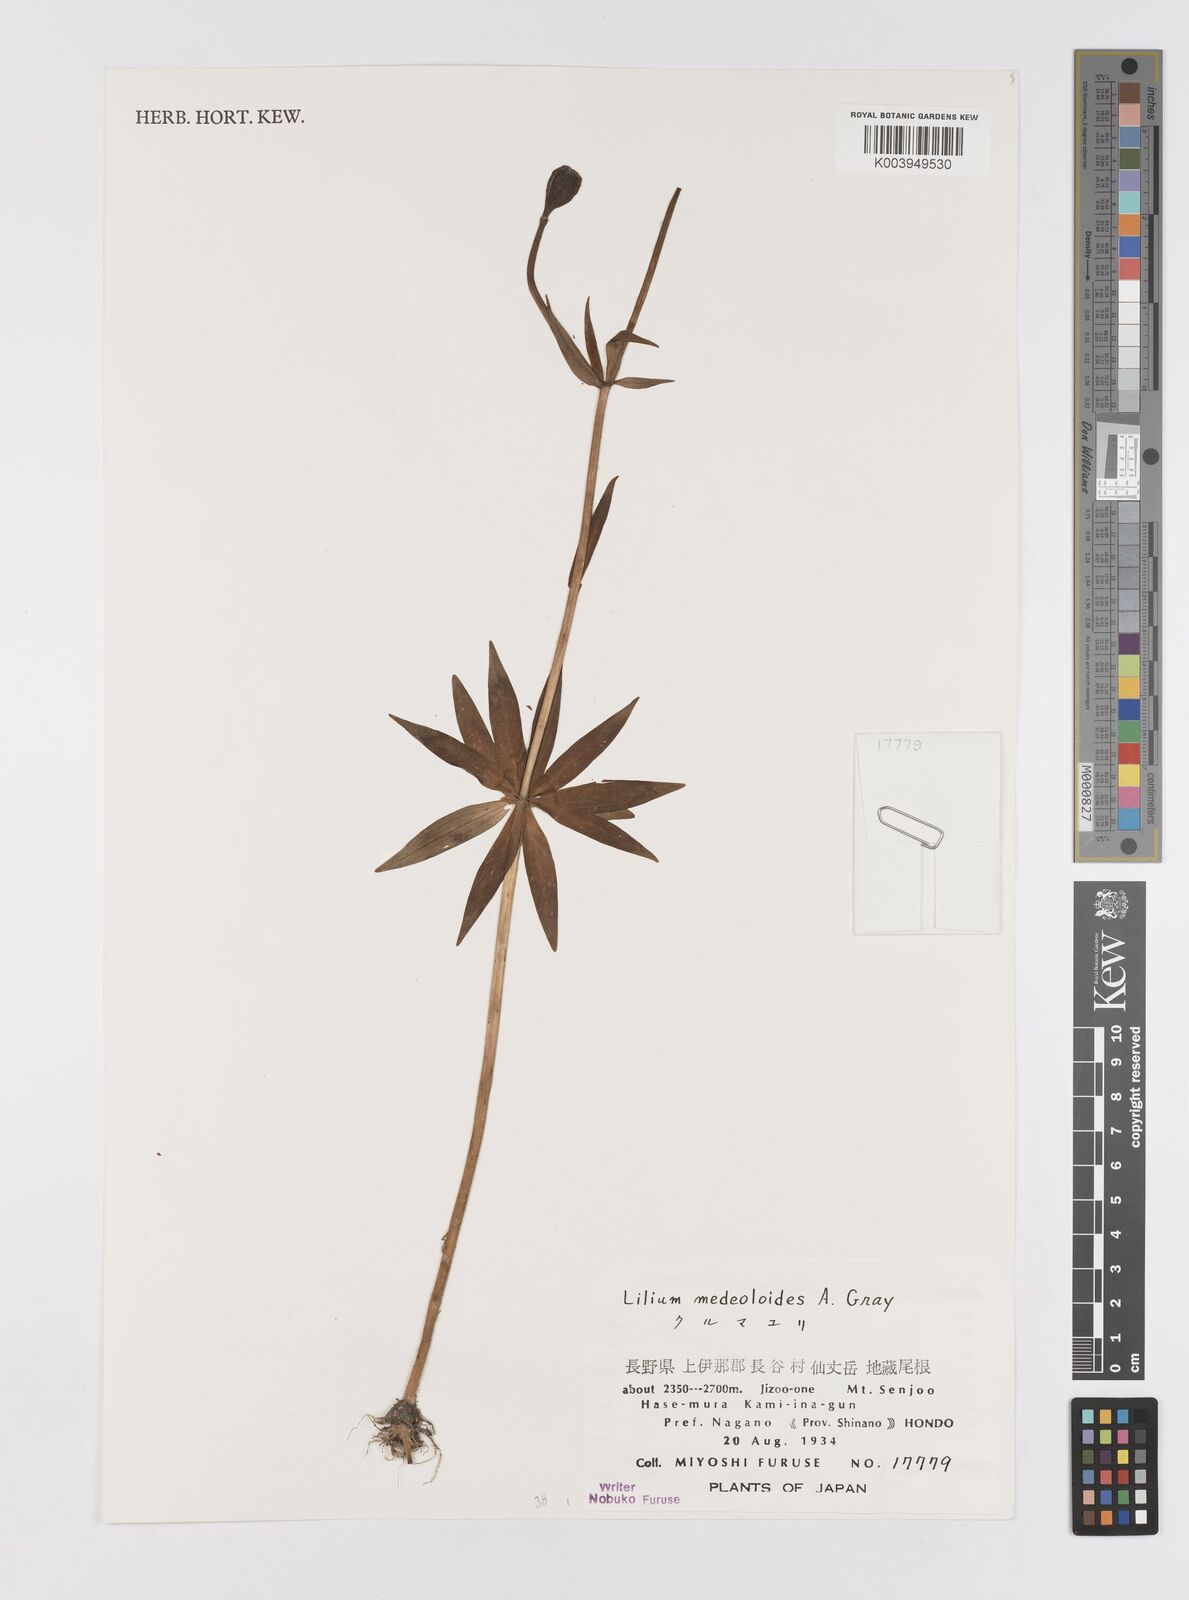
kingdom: Plantae
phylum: Tracheophyta
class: Liliopsida
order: Liliales
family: Liliaceae
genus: Lilium
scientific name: Lilium medeoloides
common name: Wheel lily
